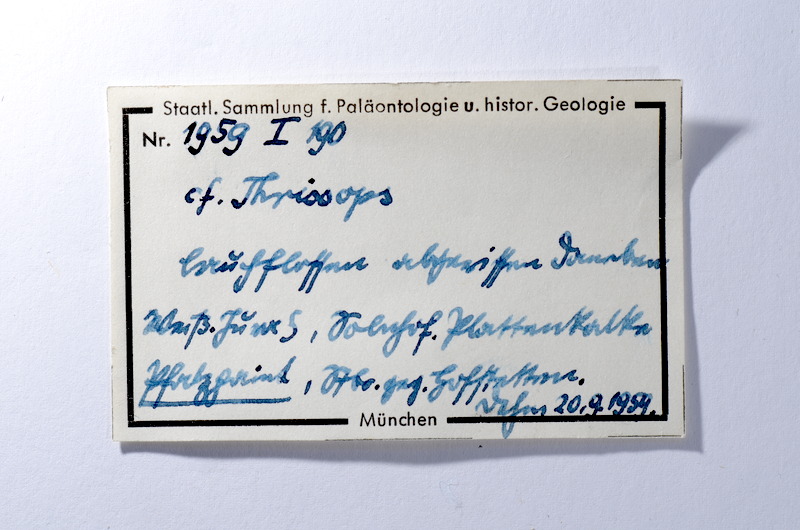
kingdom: Animalia
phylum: Chordata
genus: Thrissops
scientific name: Thrissops
